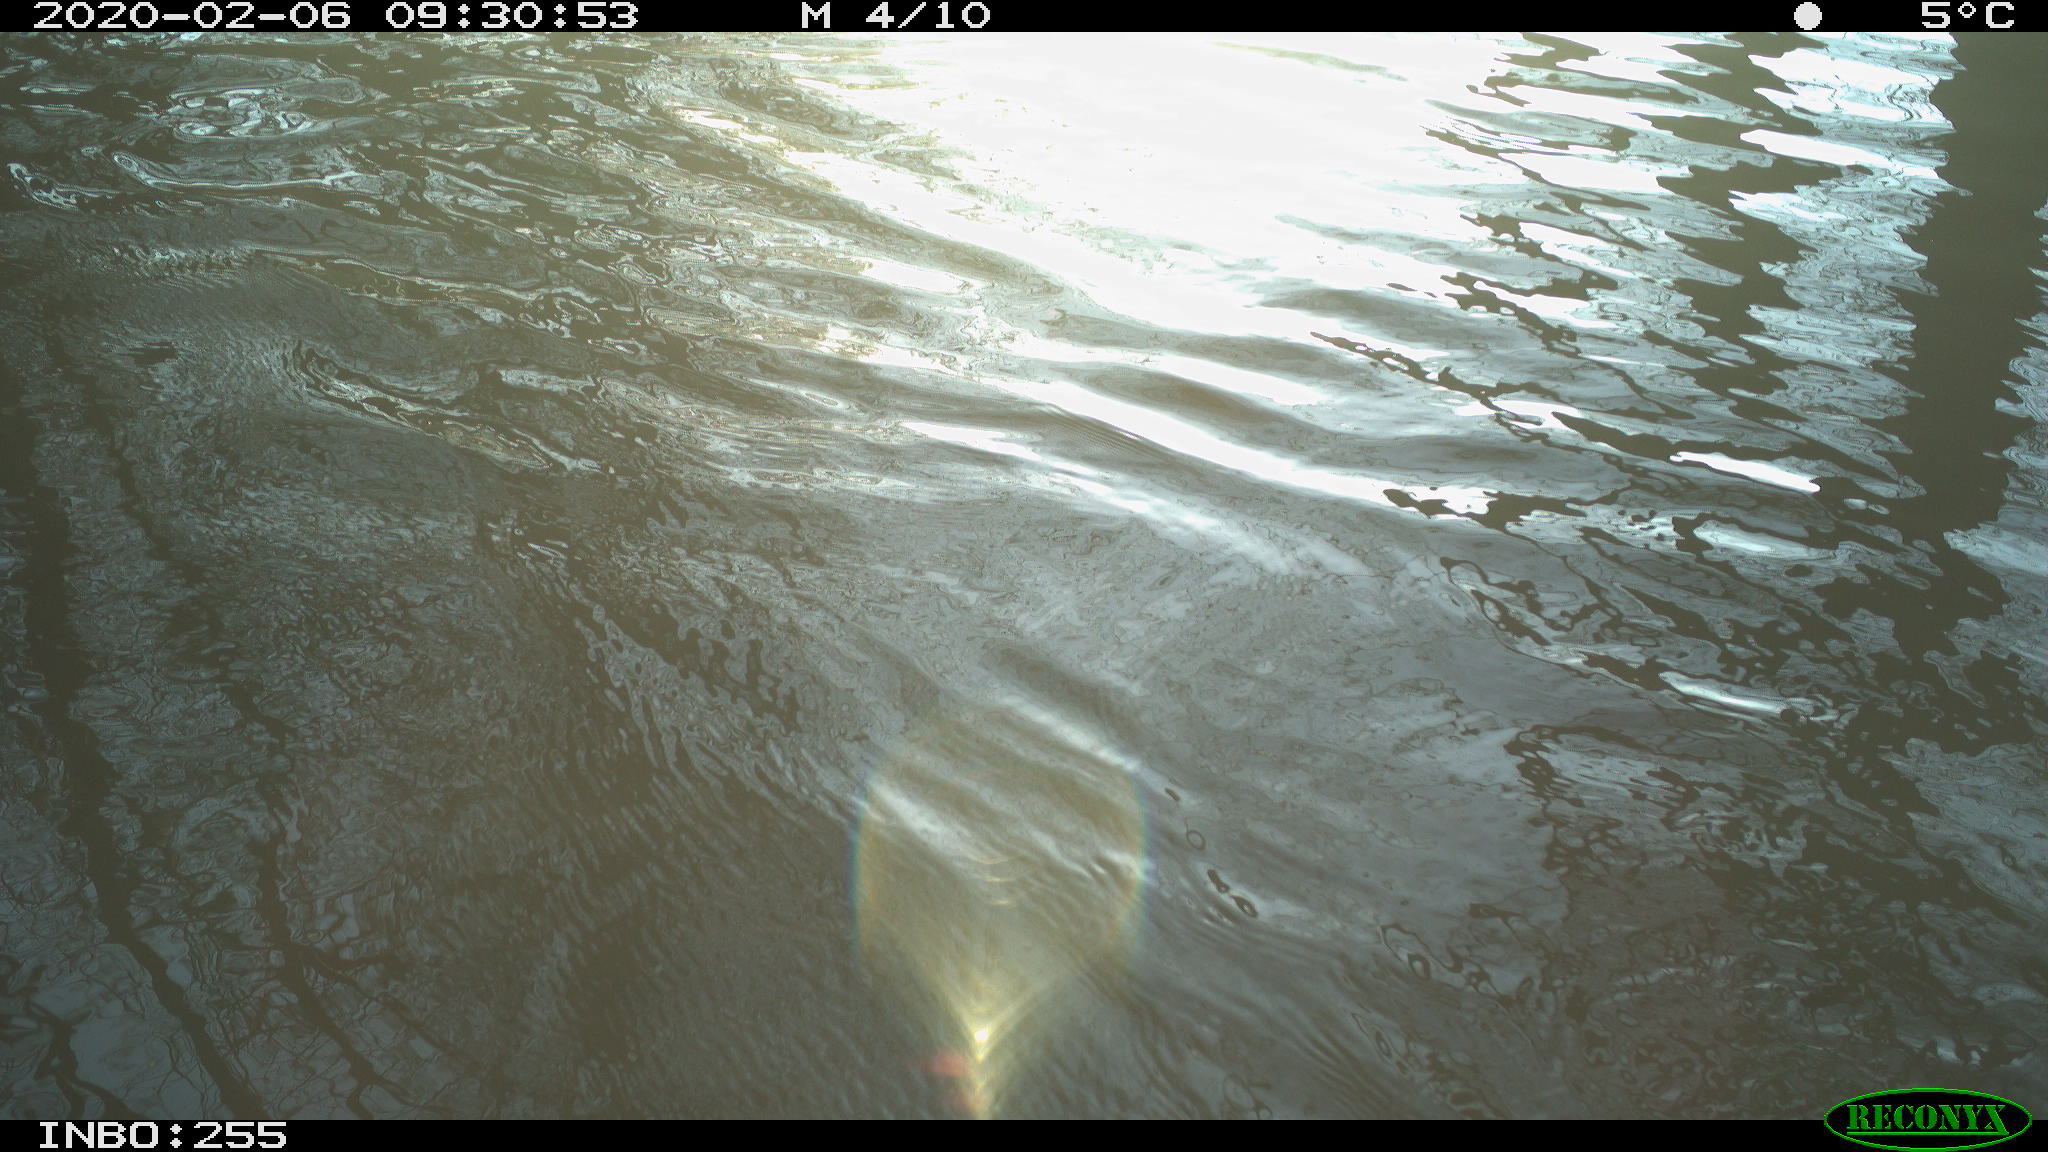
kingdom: Animalia
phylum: Chordata
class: Aves
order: Gruiformes
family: Rallidae
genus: Fulica
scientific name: Fulica atra
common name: Eurasian coot
